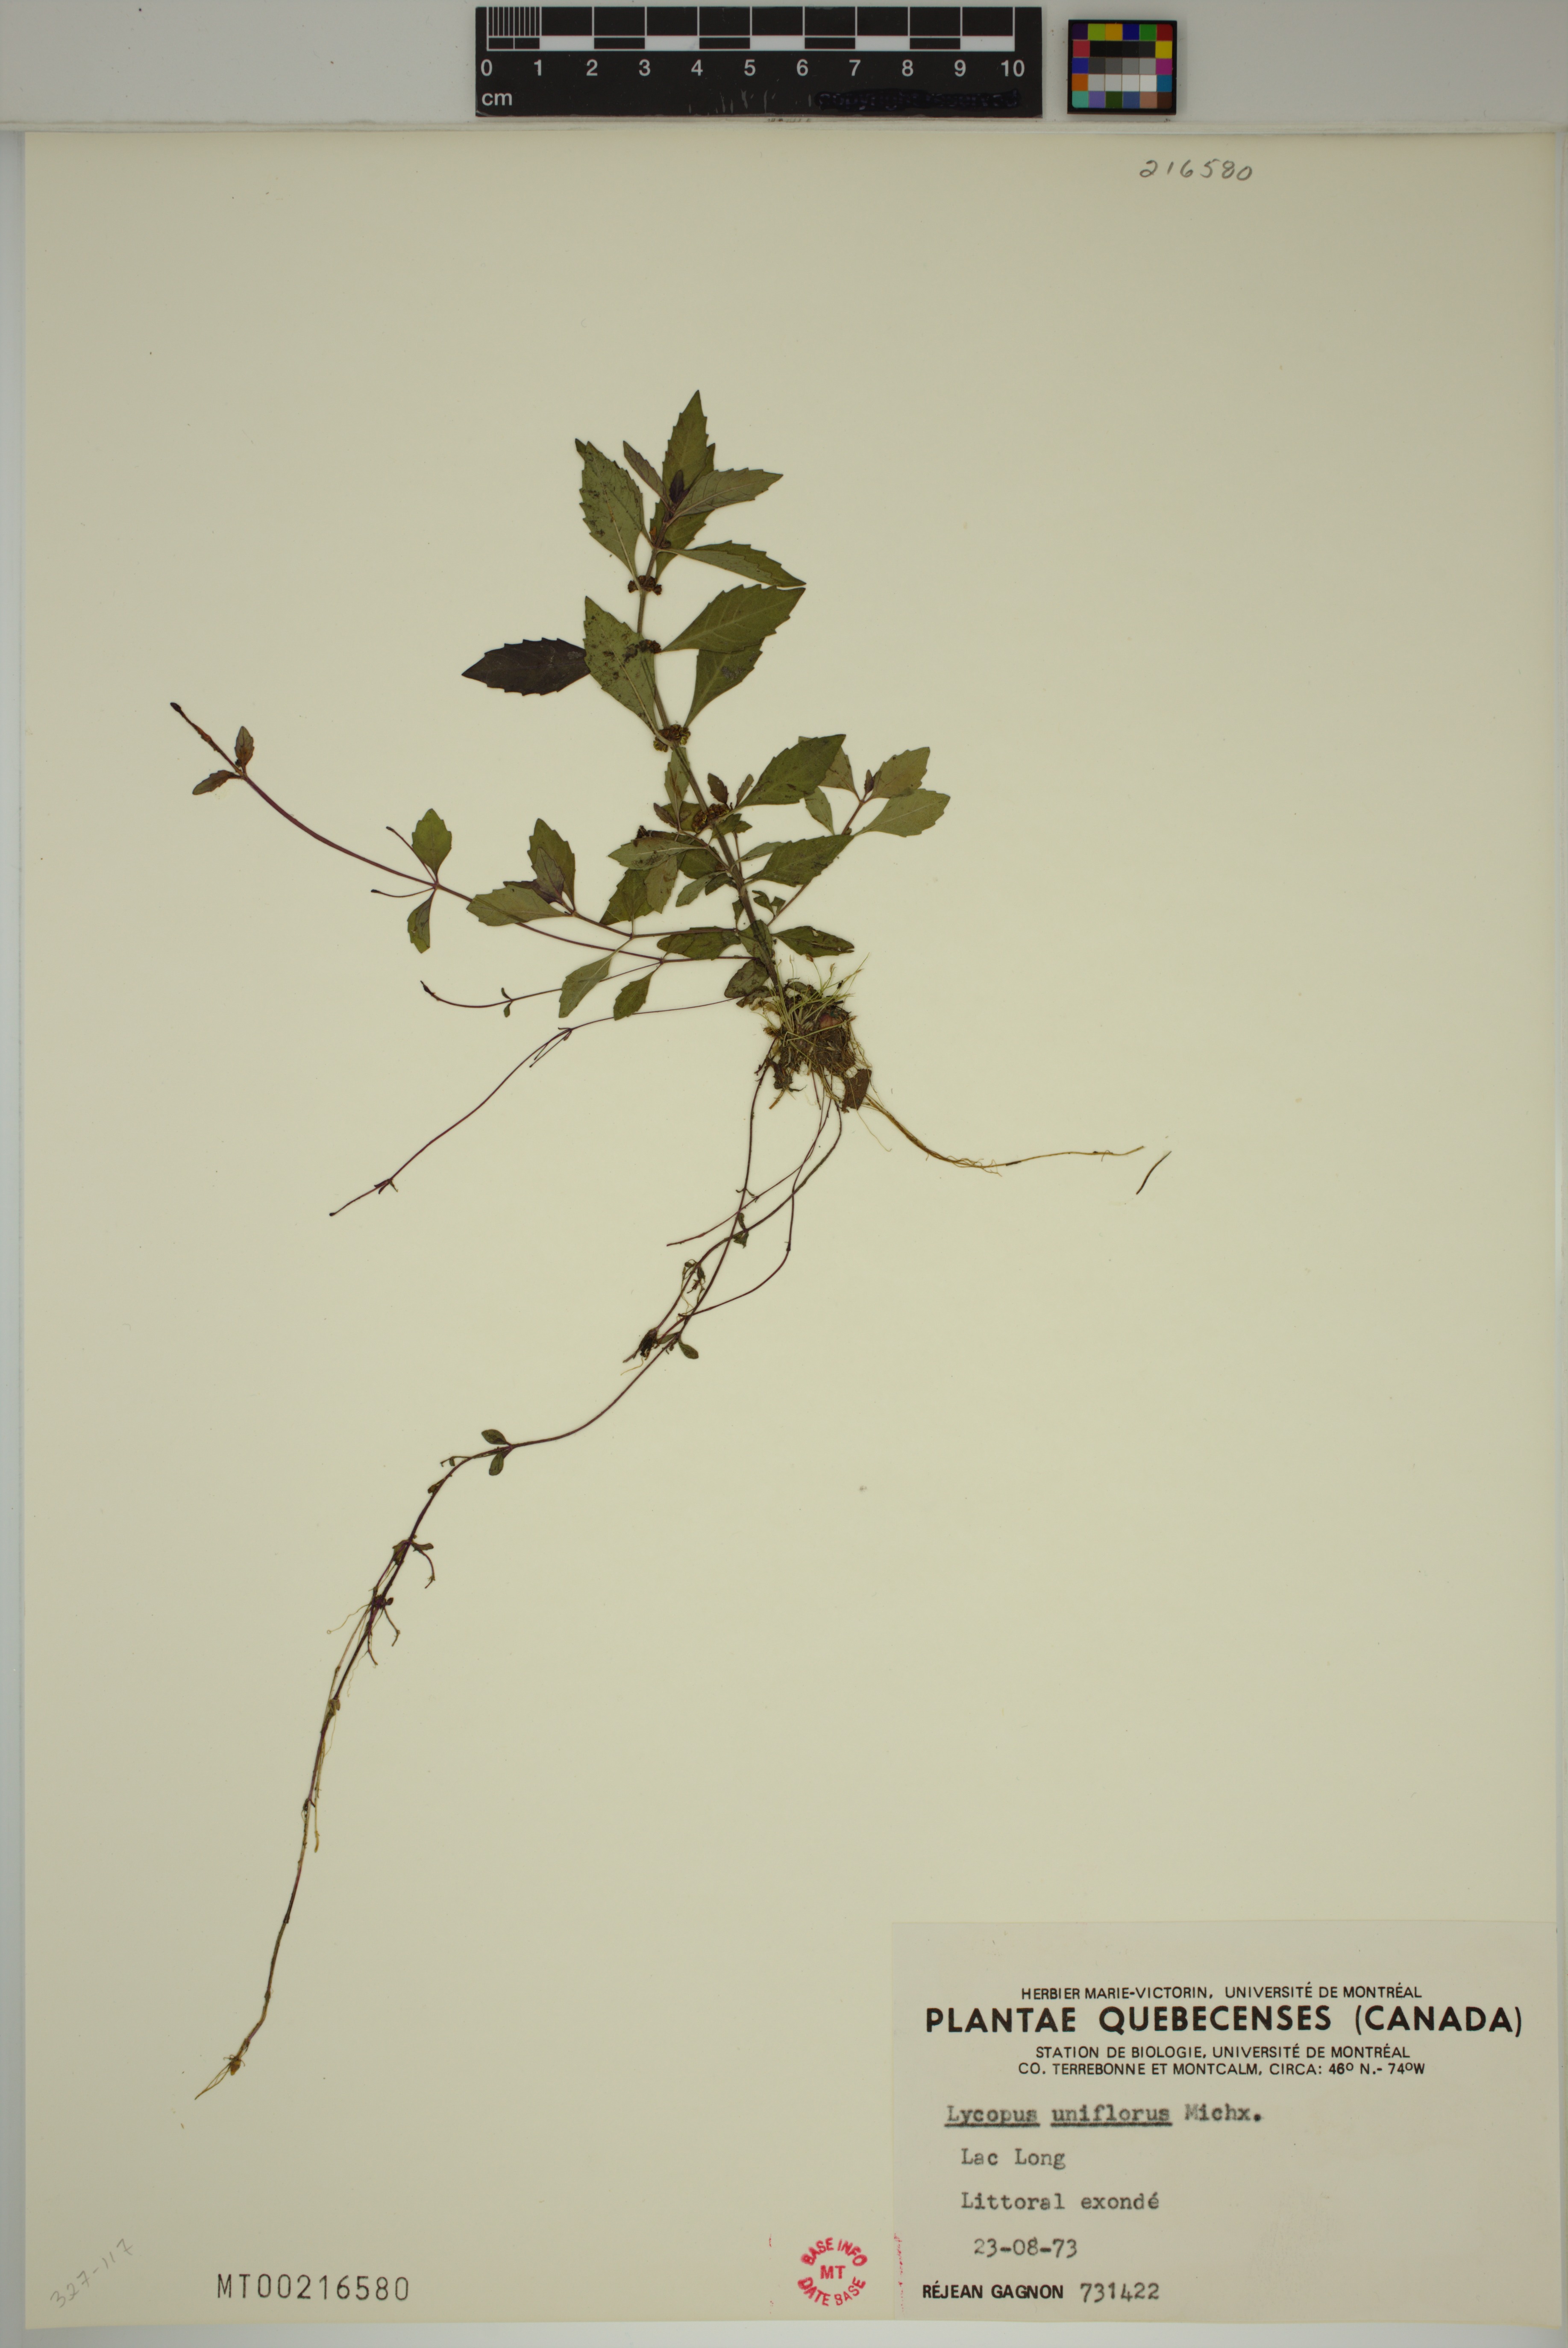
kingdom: Plantae
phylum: Tracheophyta
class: Magnoliopsida
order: Lamiales
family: Lamiaceae
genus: Lycopus
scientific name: Lycopus uniflorus
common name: Northern bugleweed
